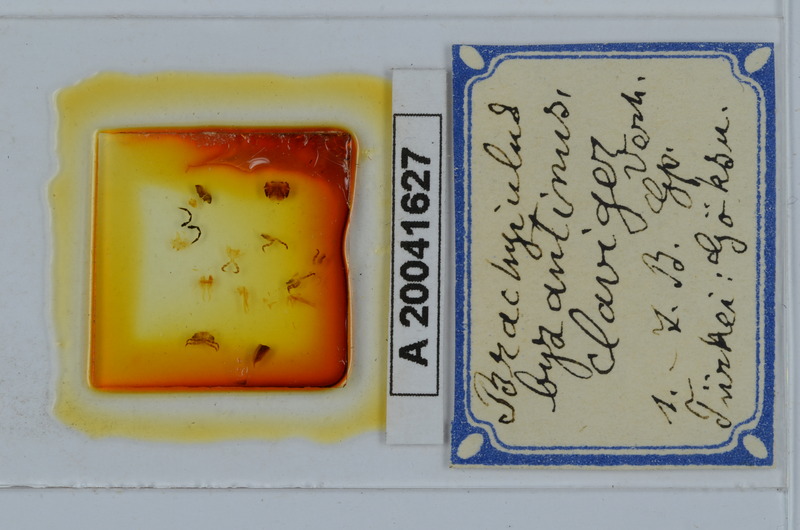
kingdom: Animalia
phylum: Arthropoda
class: Diplopoda
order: Julida
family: Julidae
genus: Brachyiulus
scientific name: Brachyiulus byzantinus
